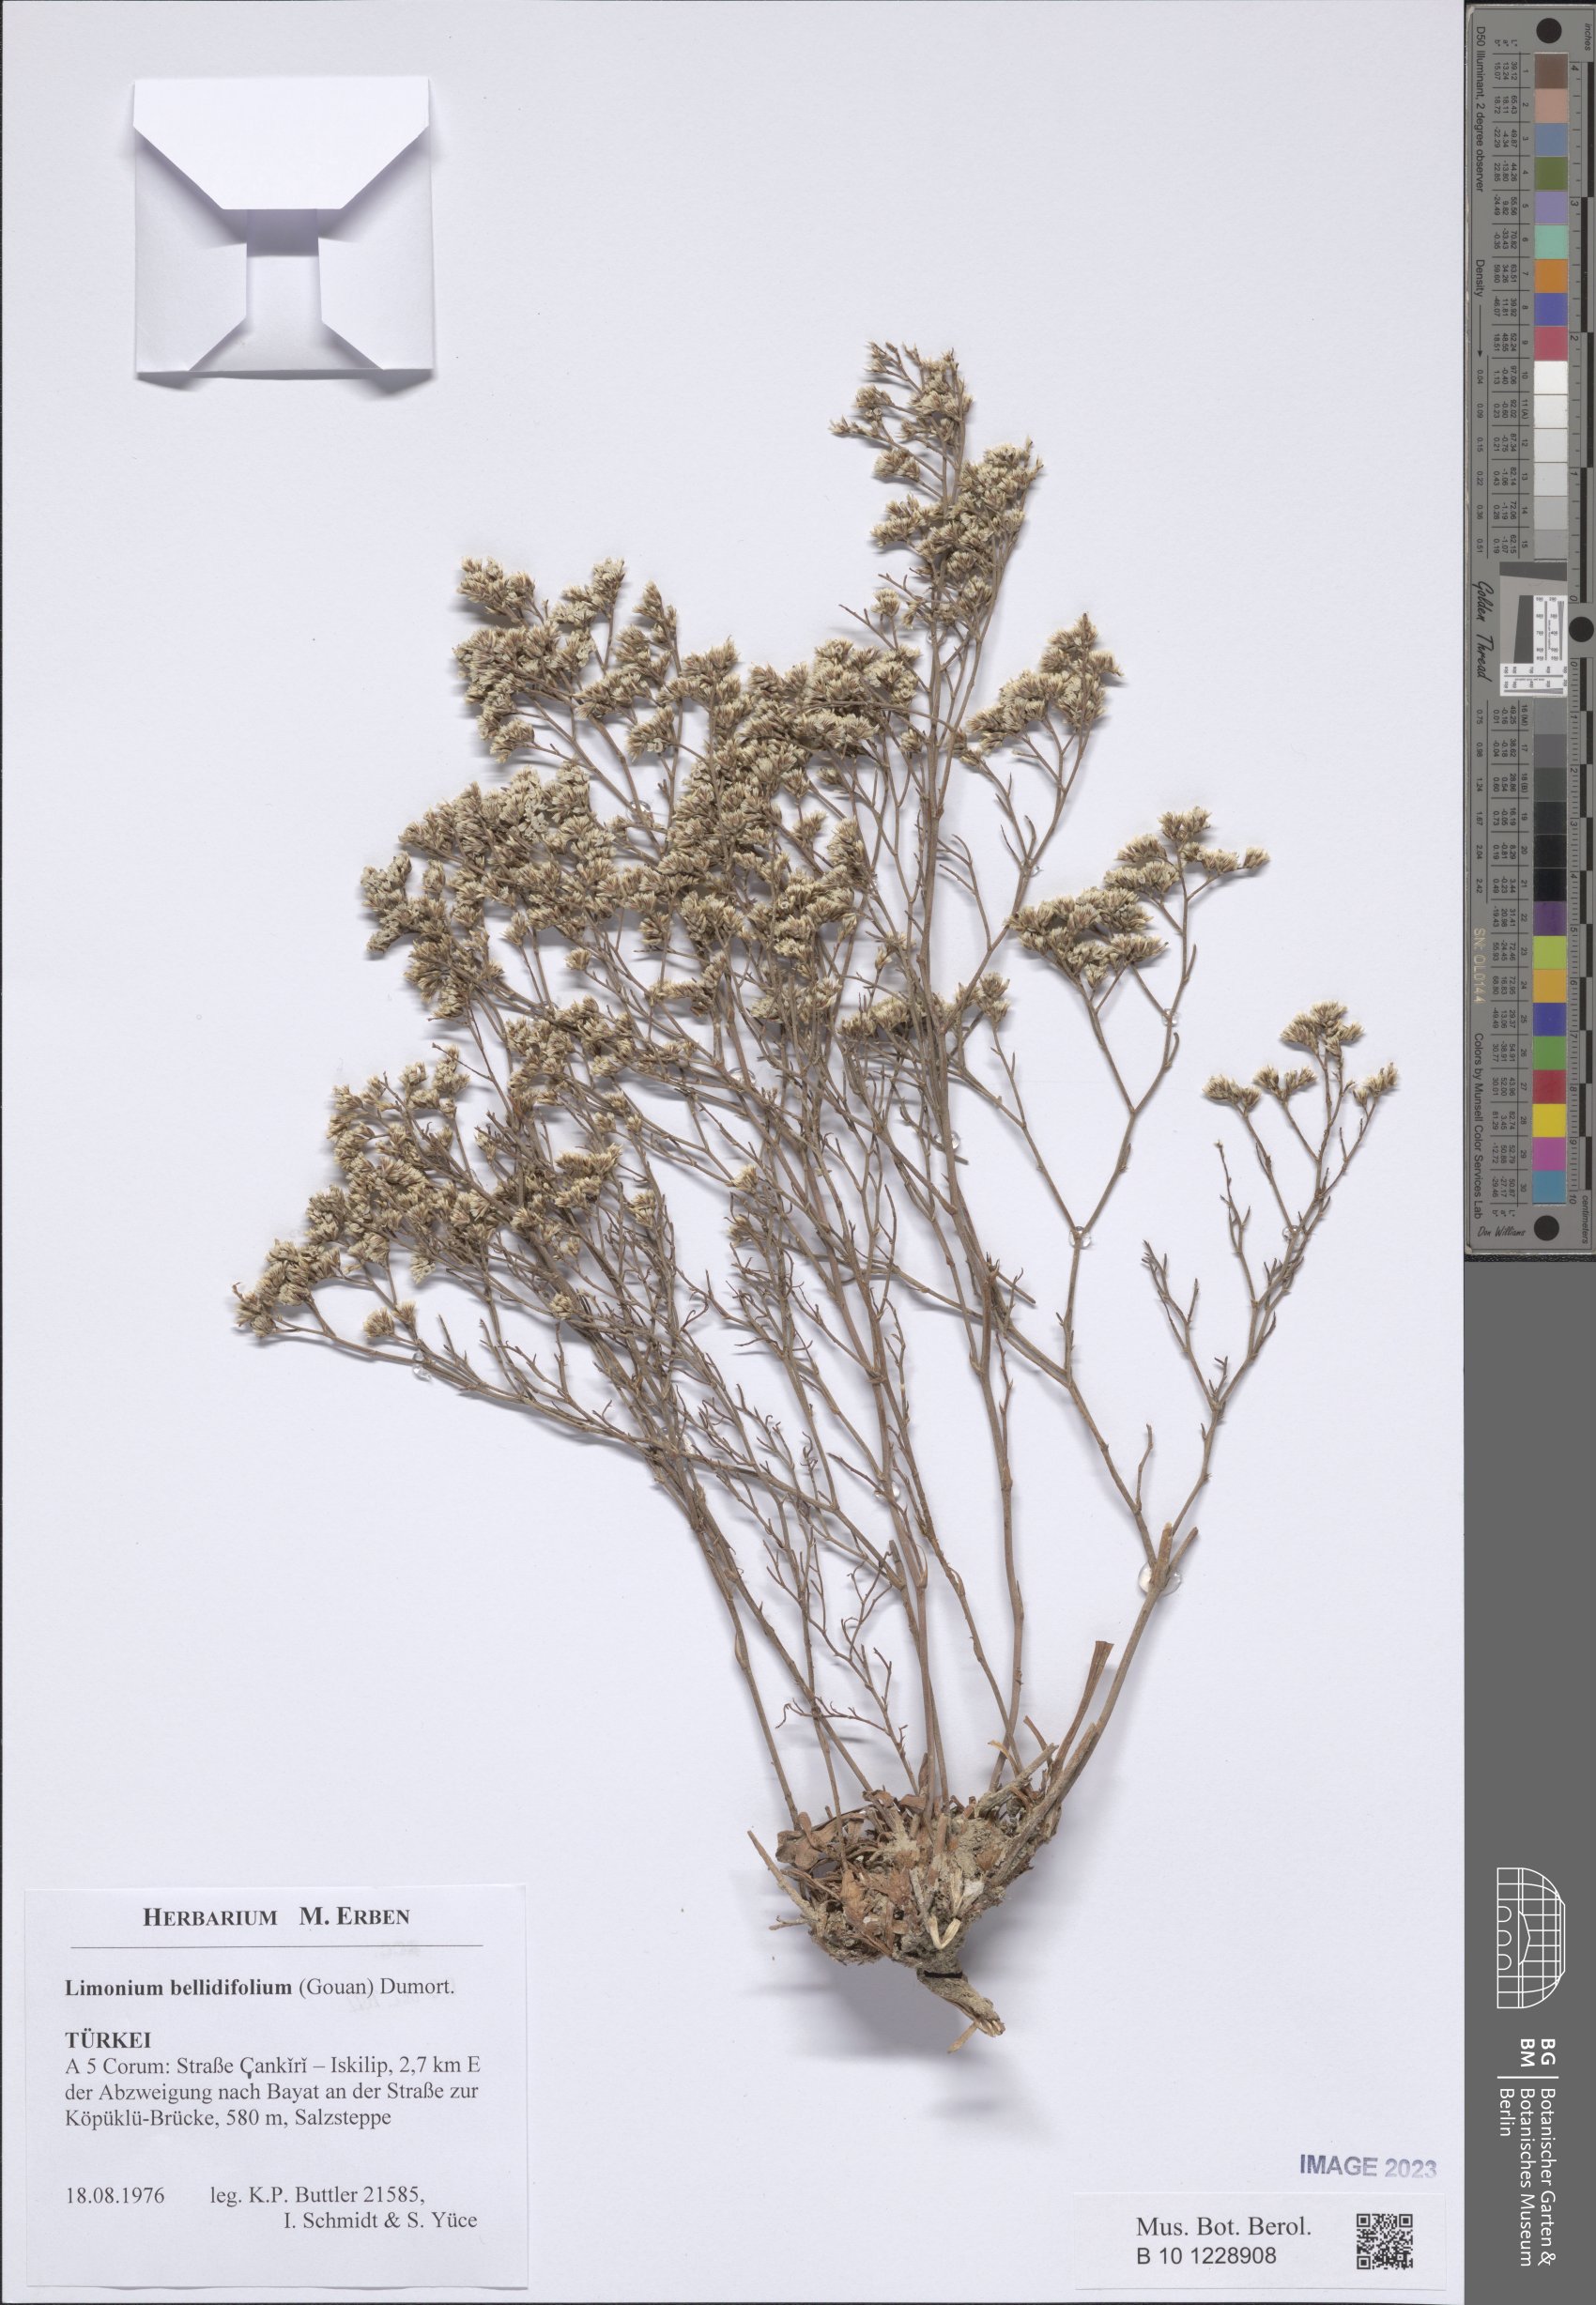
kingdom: Plantae
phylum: Tracheophyta
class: Magnoliopsida
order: Caryophyllales
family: Plumbaginaceae
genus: Limonium
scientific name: Limonium bellidifolium
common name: Matted sea-lavender
